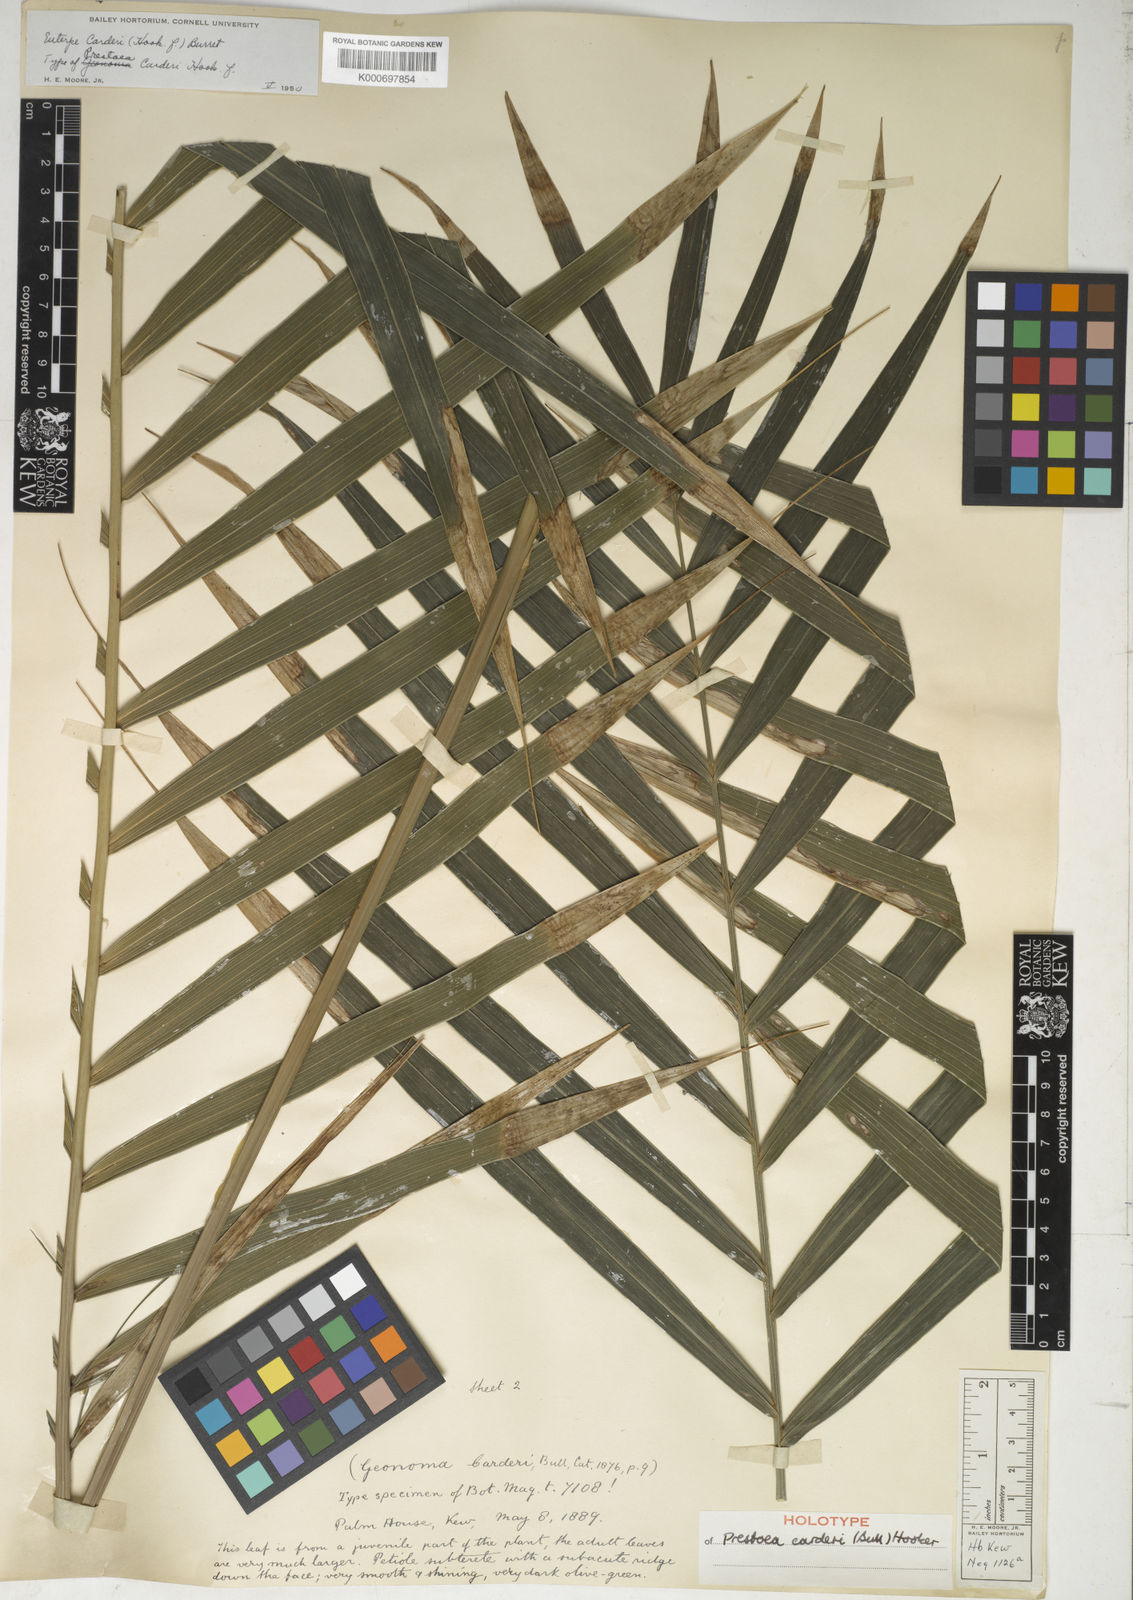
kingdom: Plantae
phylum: Tracheophyta
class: Liliopsida
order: Arecales
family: Arecaceae
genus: Prestoea
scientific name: Prestoea carderi
